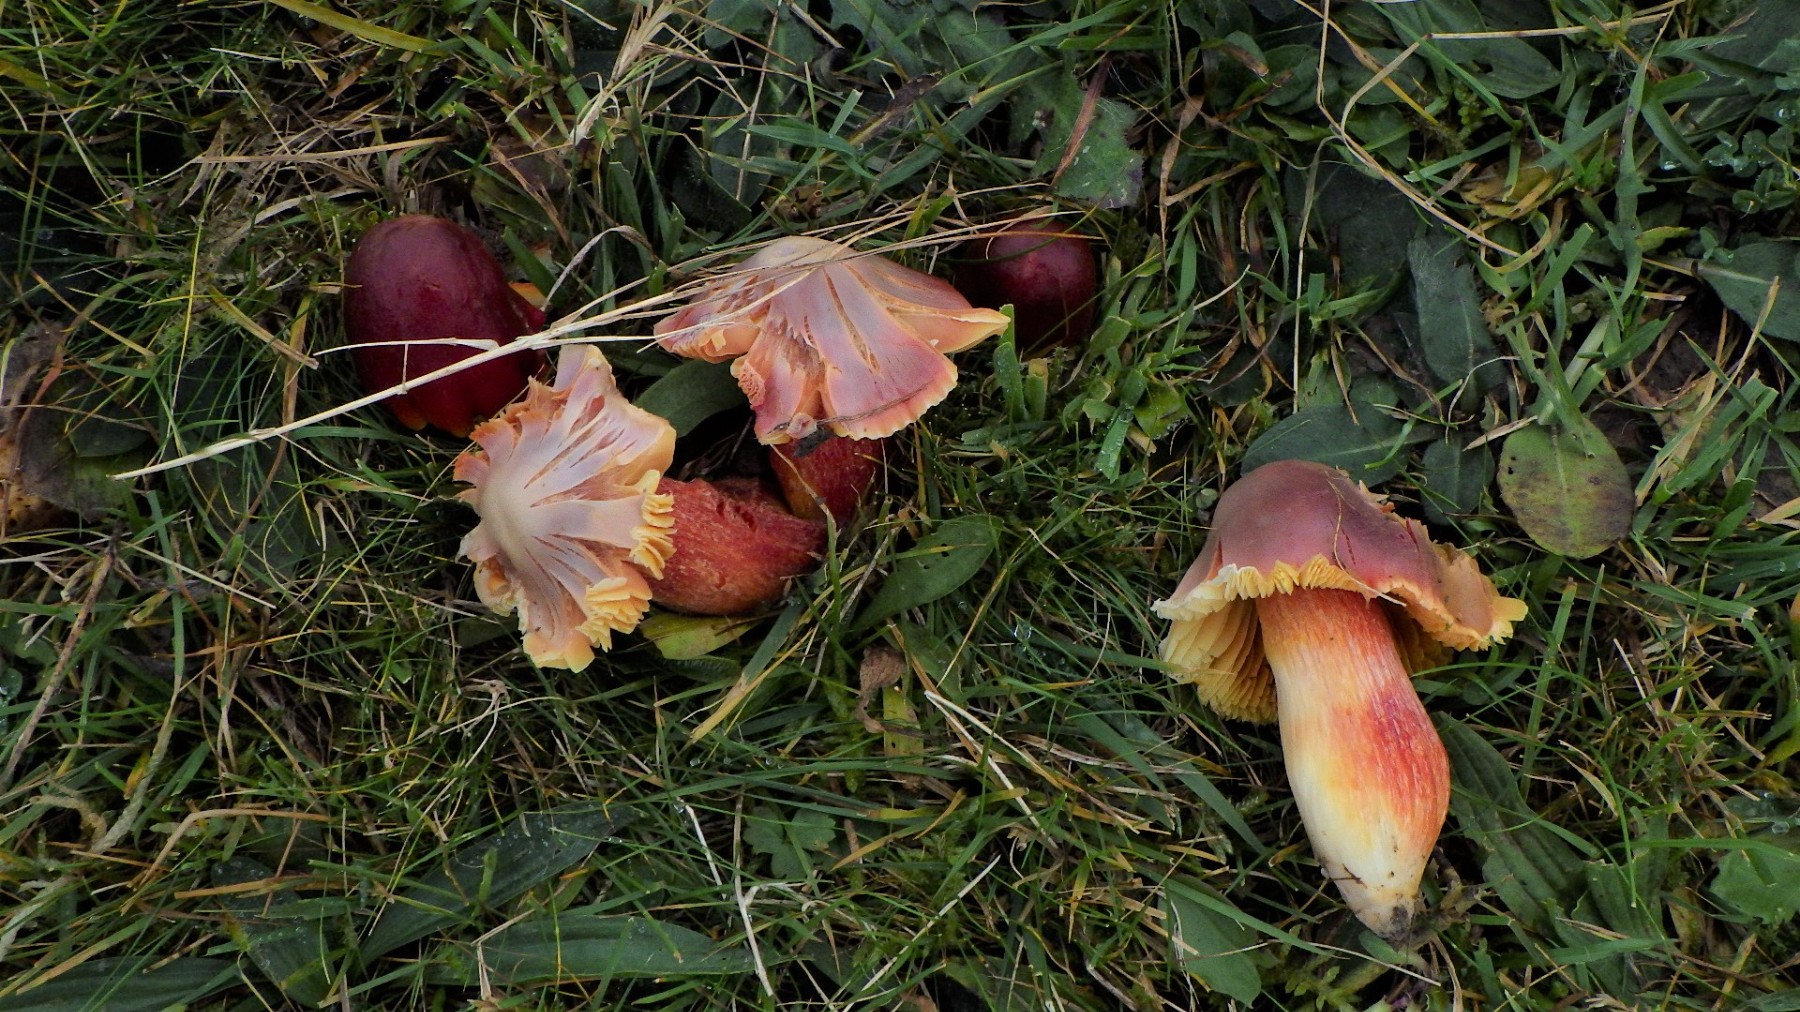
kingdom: Fungi
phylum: Basidiomycota
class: Agaricomycetes
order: Agaricales
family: Hygrophoraceae
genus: Hygrocybe
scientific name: Hygrocybe punicea
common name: skarlagen-vokshat
